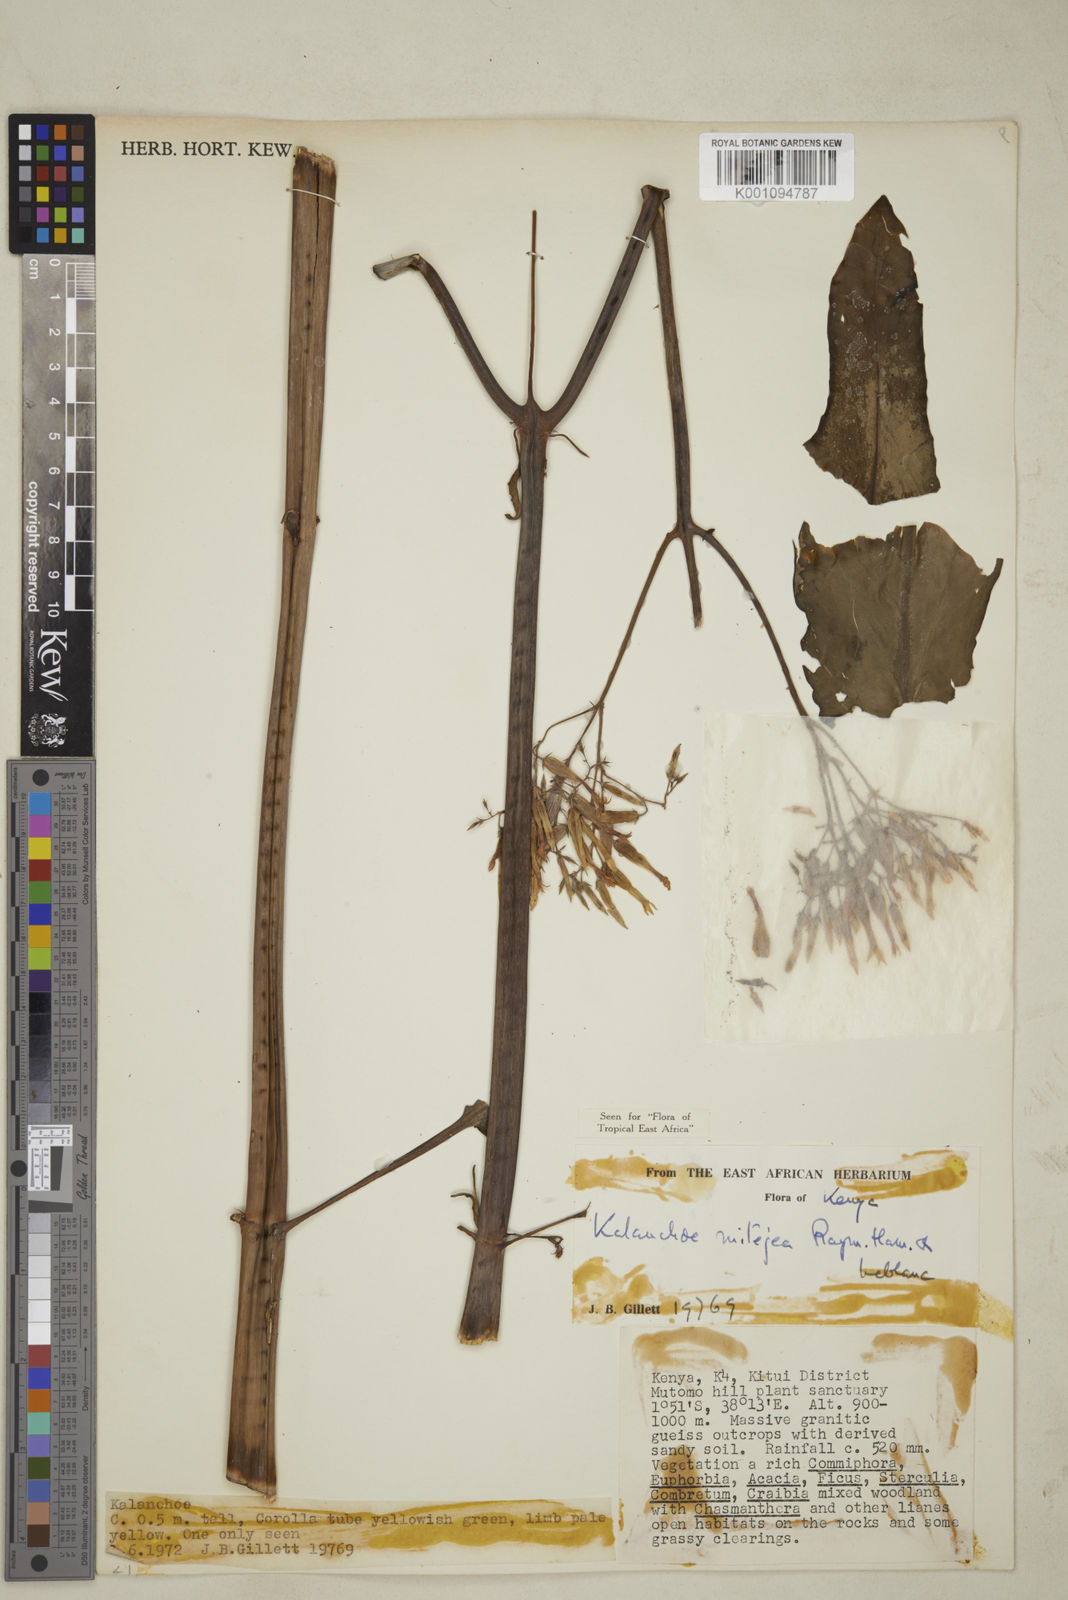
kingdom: Plantae
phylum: Tracheophyta
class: Magnoliopsida
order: Saxifragales
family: Crassulaceae
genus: Kalanchoe
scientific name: Kalanchoe mitejea
